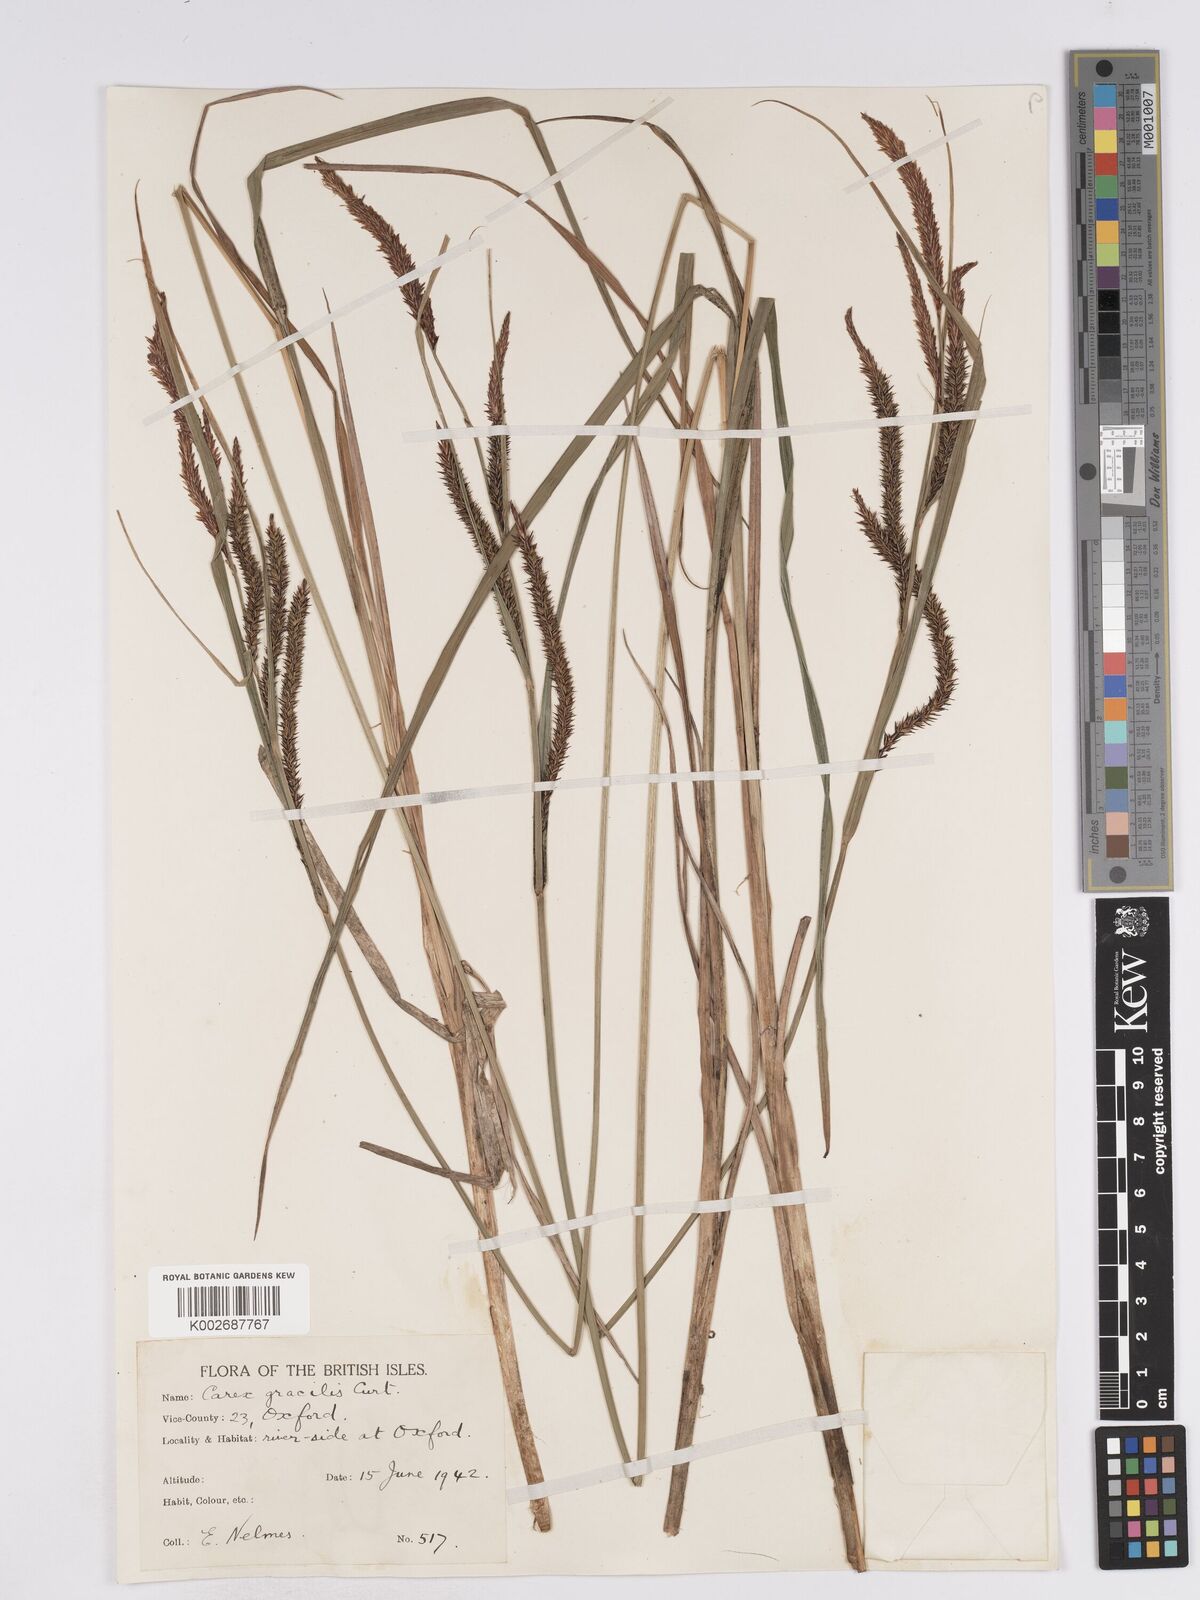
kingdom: Plantae
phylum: Tracheophyta
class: Liliopsida
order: Poales
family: Cyperaceae
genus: Carex
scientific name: Carex acuta
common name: Slender tufted-sedge
